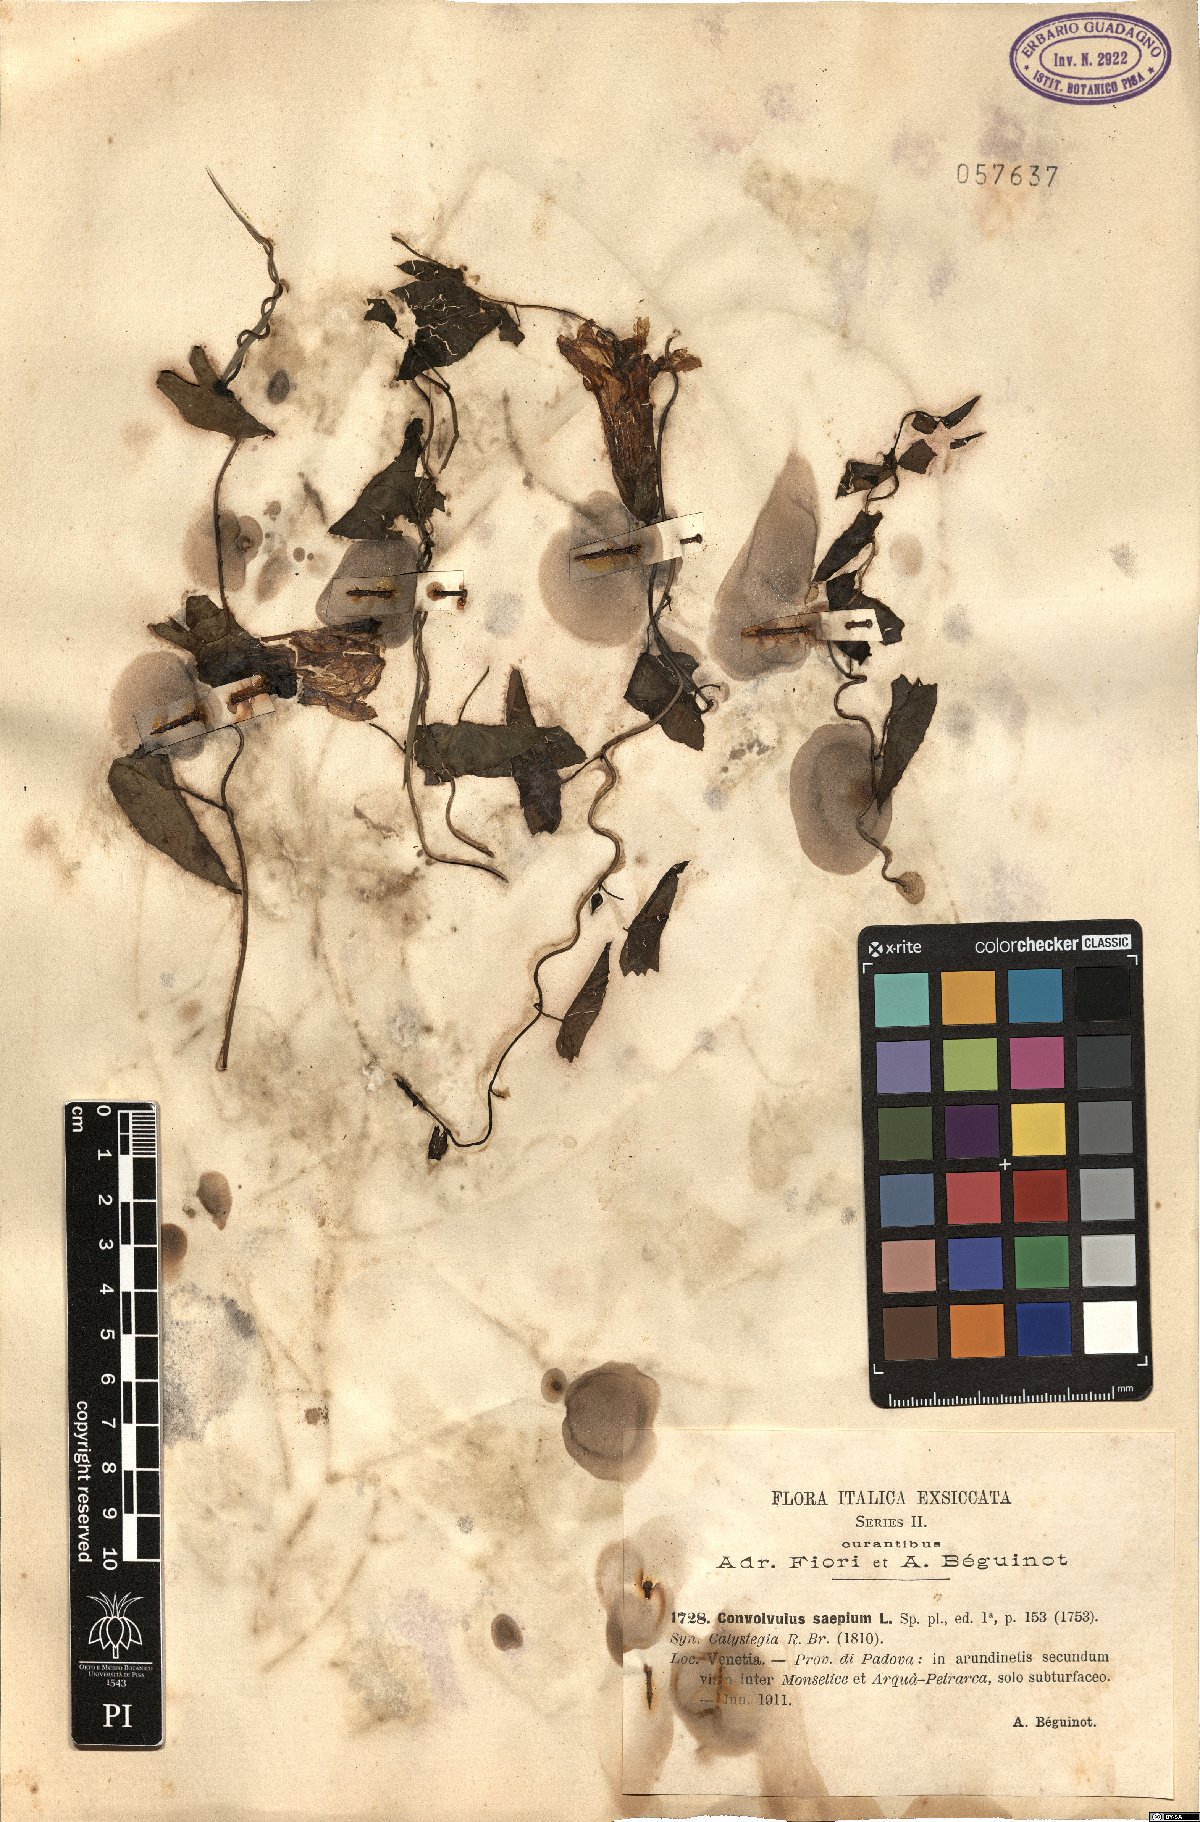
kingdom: Plantae
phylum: Tracheophyta
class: Magnoliopsida
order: Solanales
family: Convolvulaceae
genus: Calystegia
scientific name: Calystegia sepium
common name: Hedge bindweed
